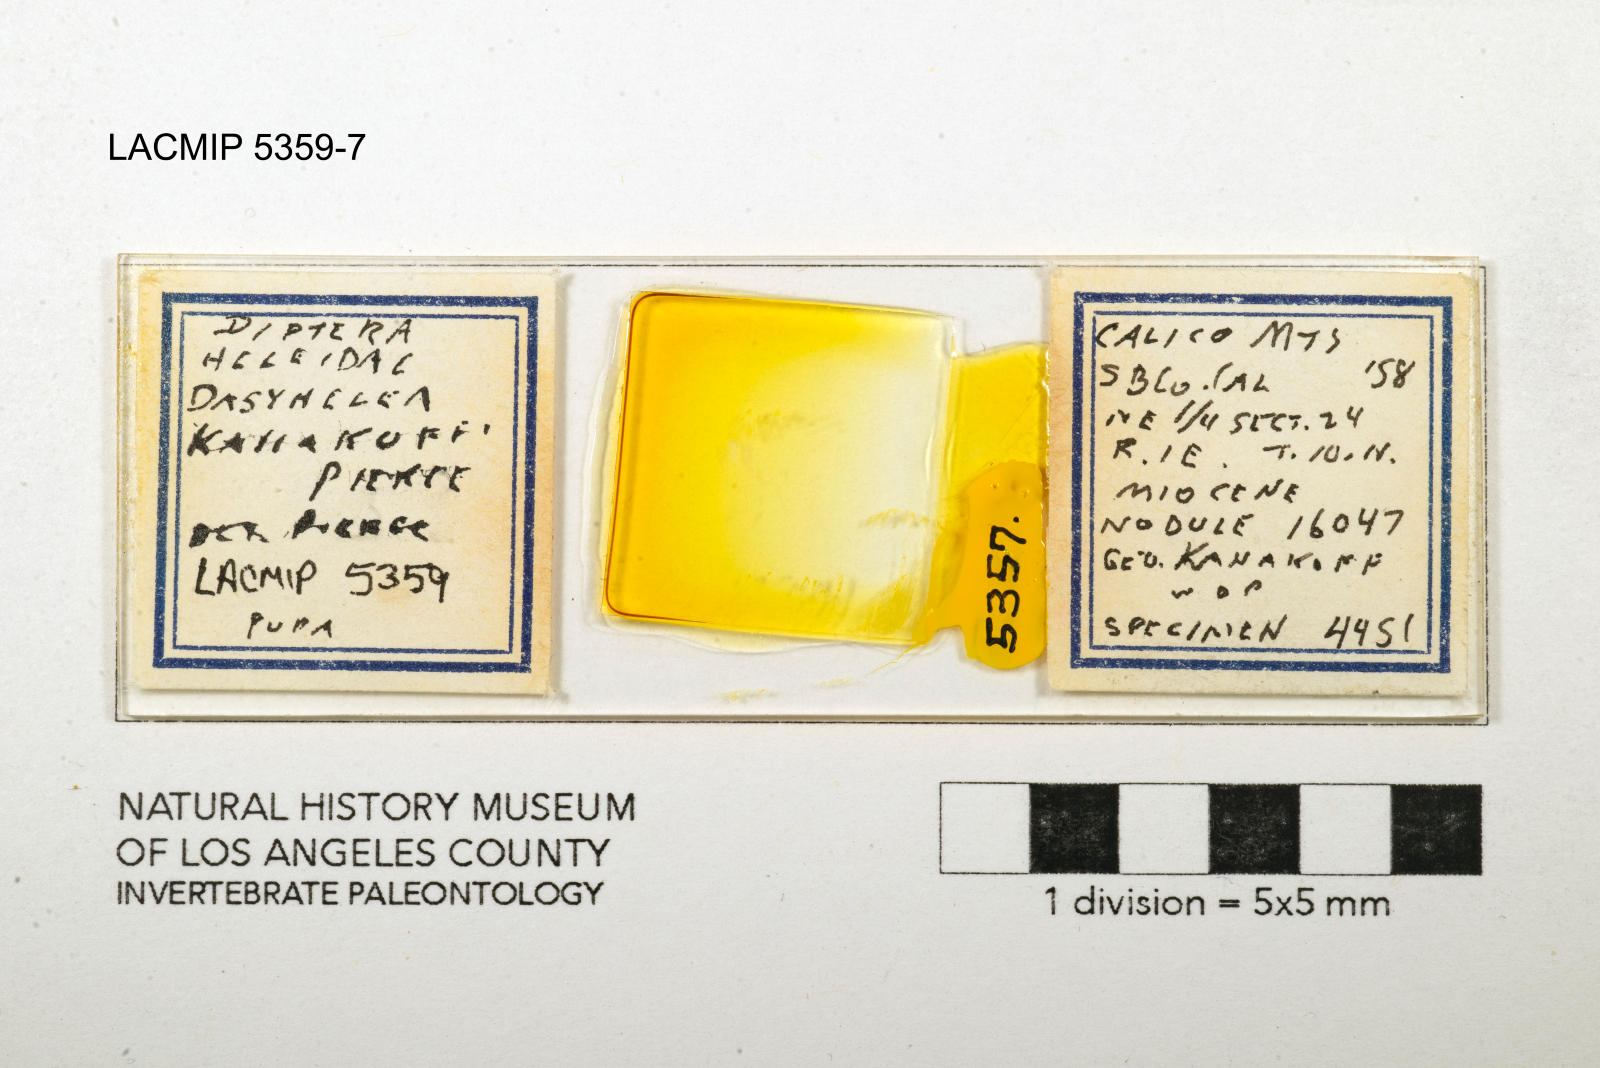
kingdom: Animalia
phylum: Arthropoda
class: Insecta
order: Diptera
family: Ceratopogonidae
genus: Dasyhelea
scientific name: Dasyhelea kanakoffi
